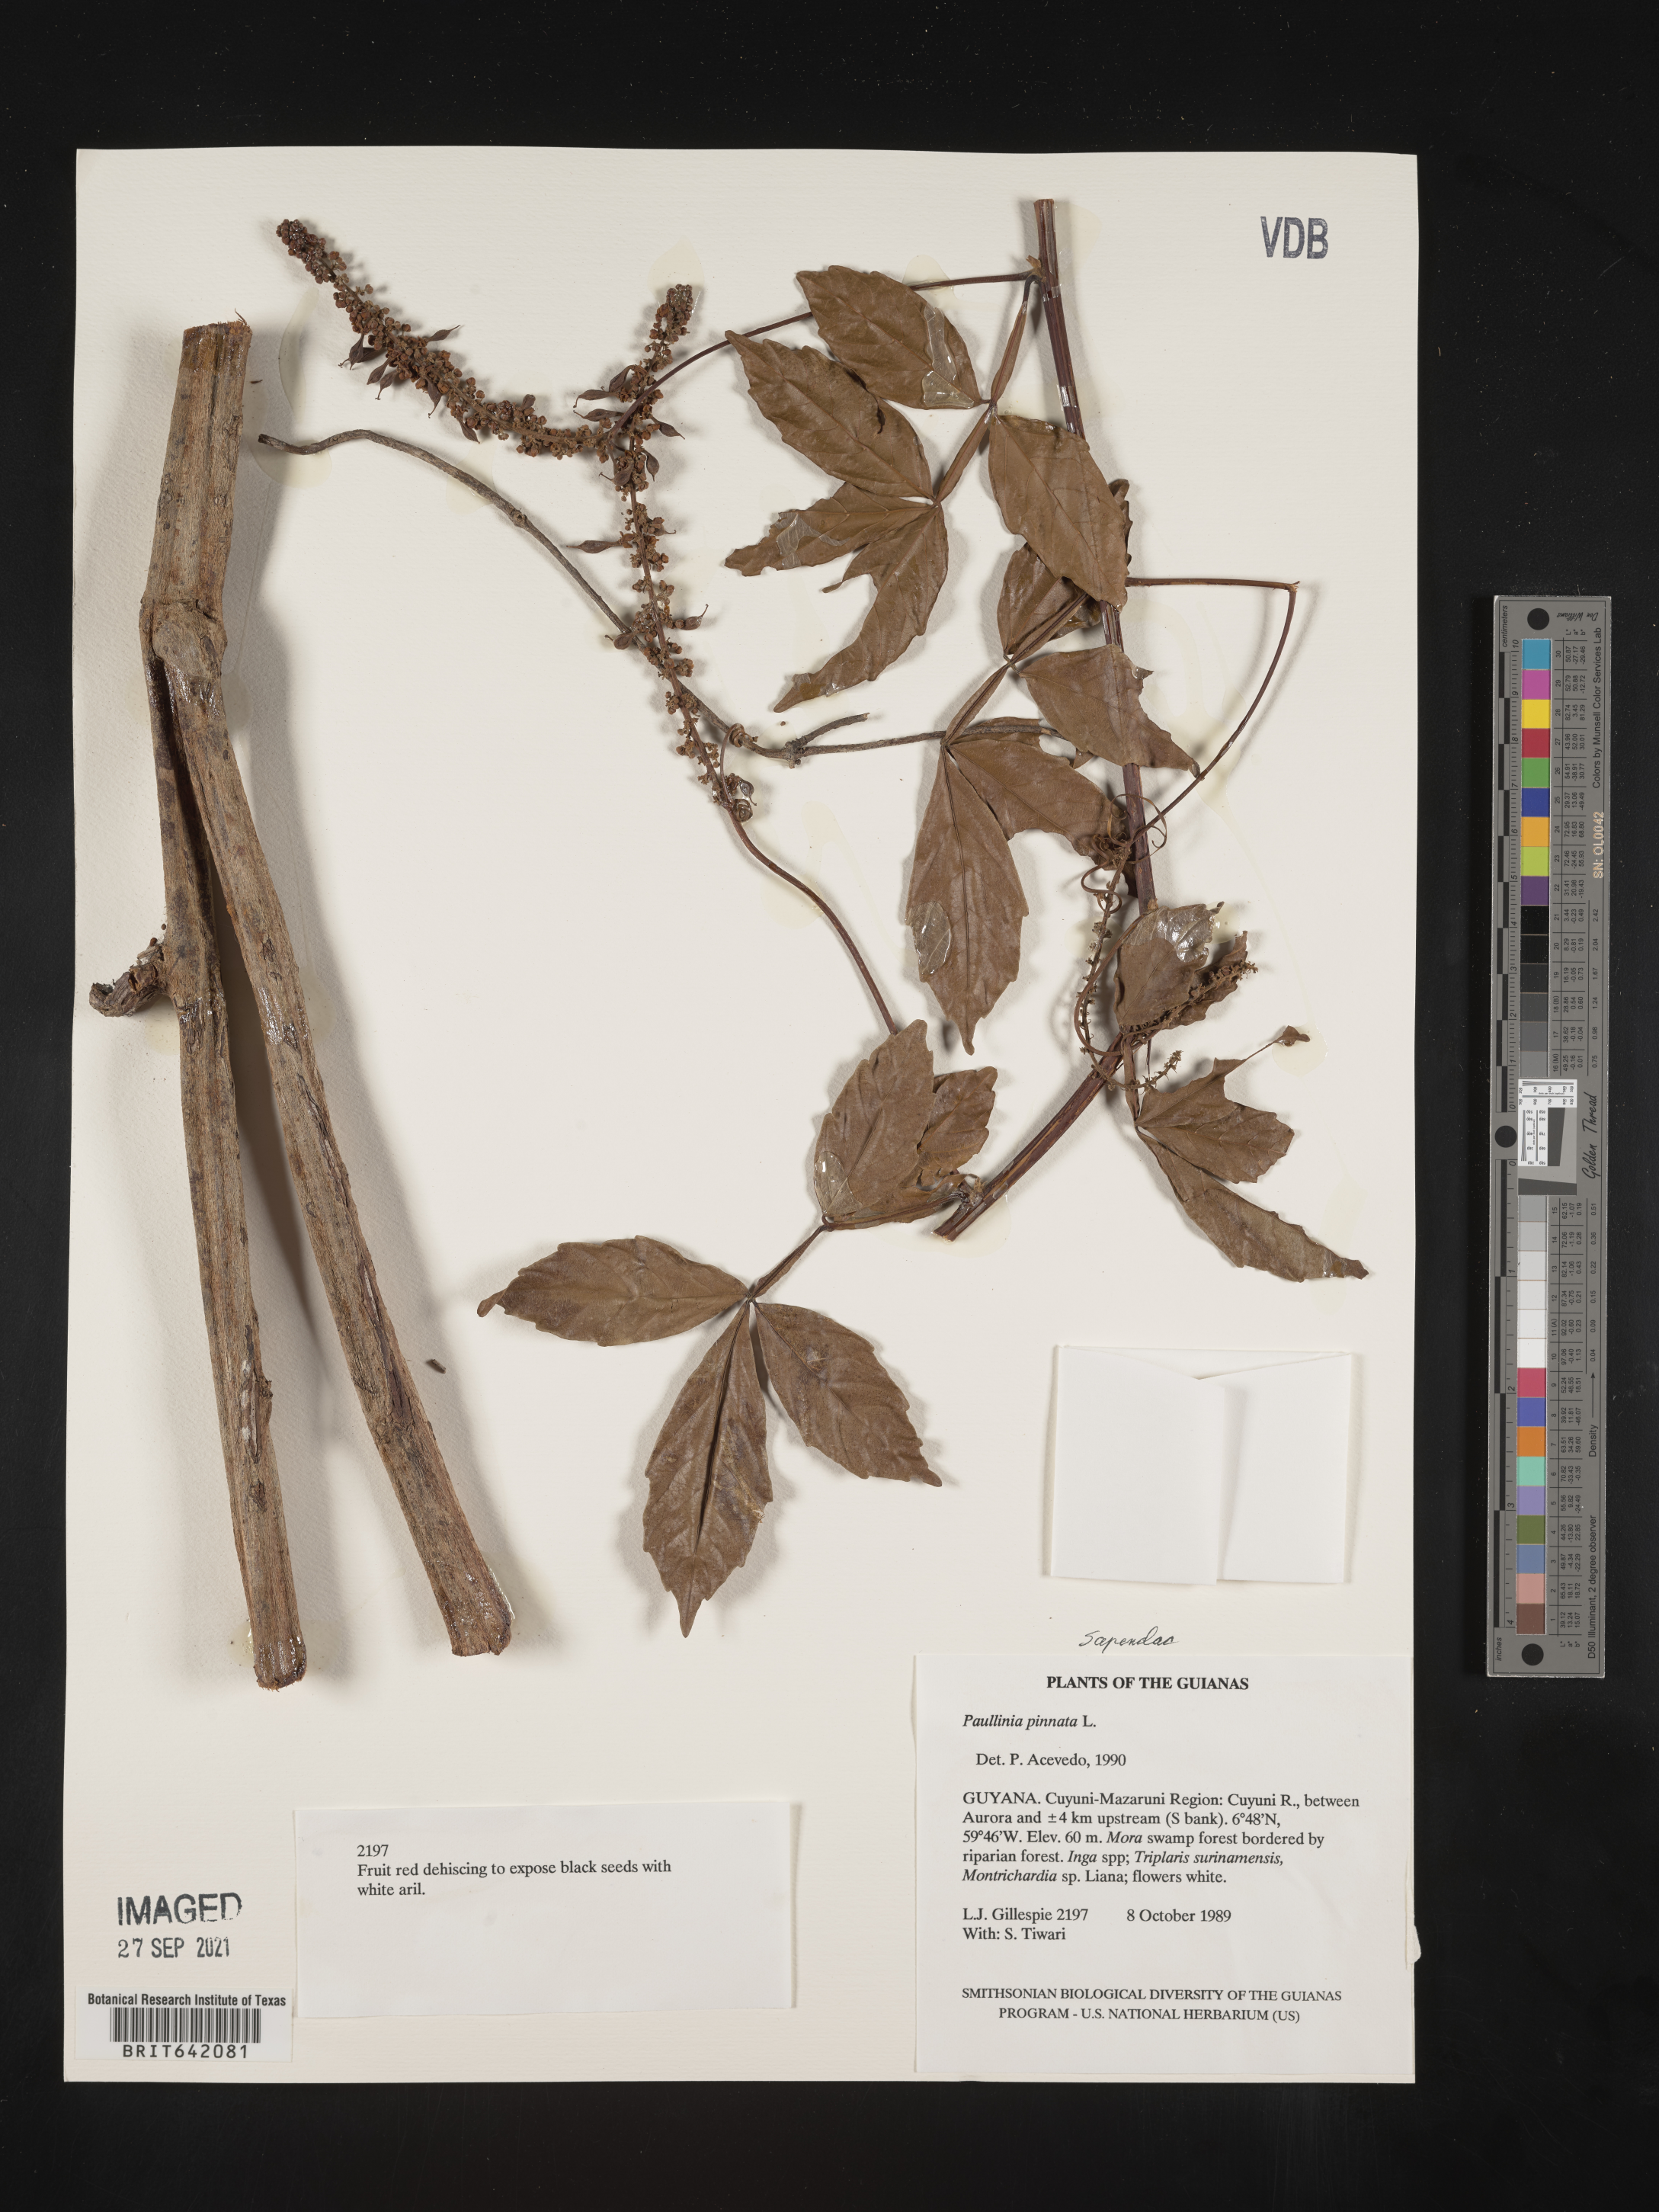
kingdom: Plantae
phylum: Tracheophyta
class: Magnoliopsida
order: Sapindales
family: Sapindaceae
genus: Paullinia
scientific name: Paullinia
